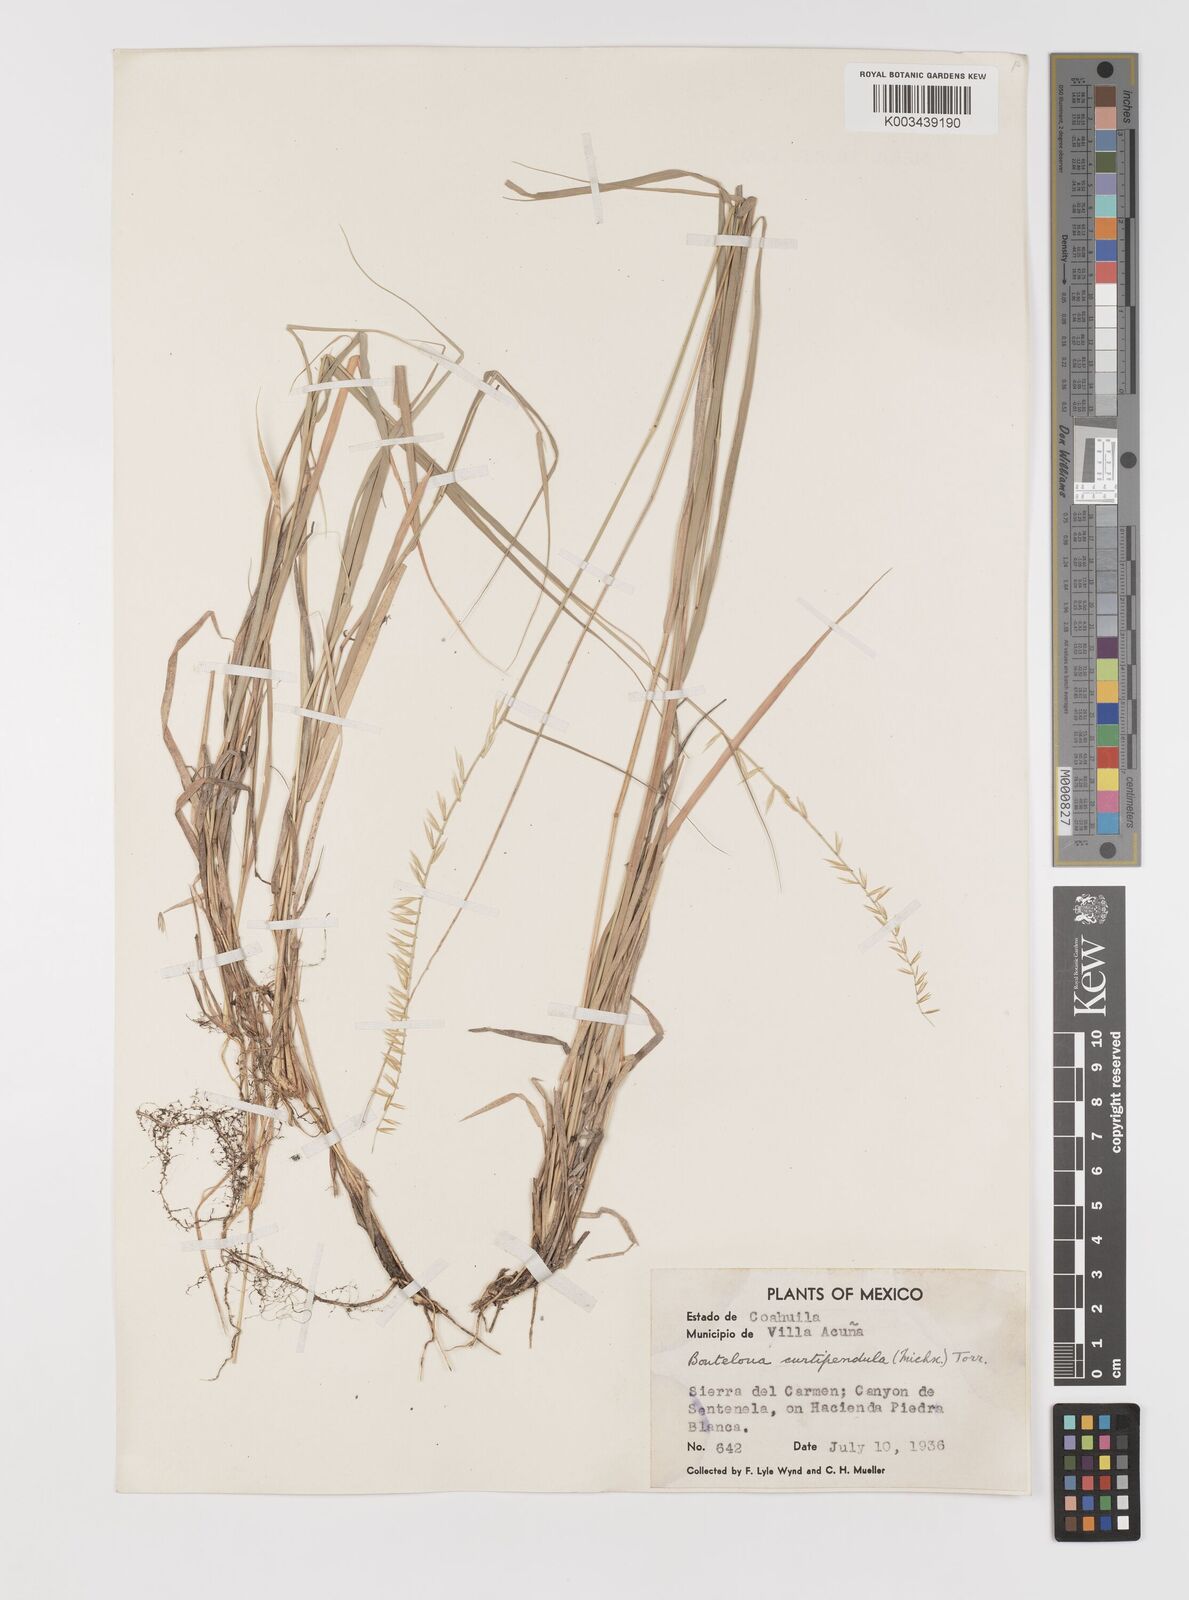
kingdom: Plantae
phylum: Tracheophyta
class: Liliopsida
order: Poales
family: Poaceae
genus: Bouteloua
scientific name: Bouteloua curtipendula
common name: Side-oats grama
